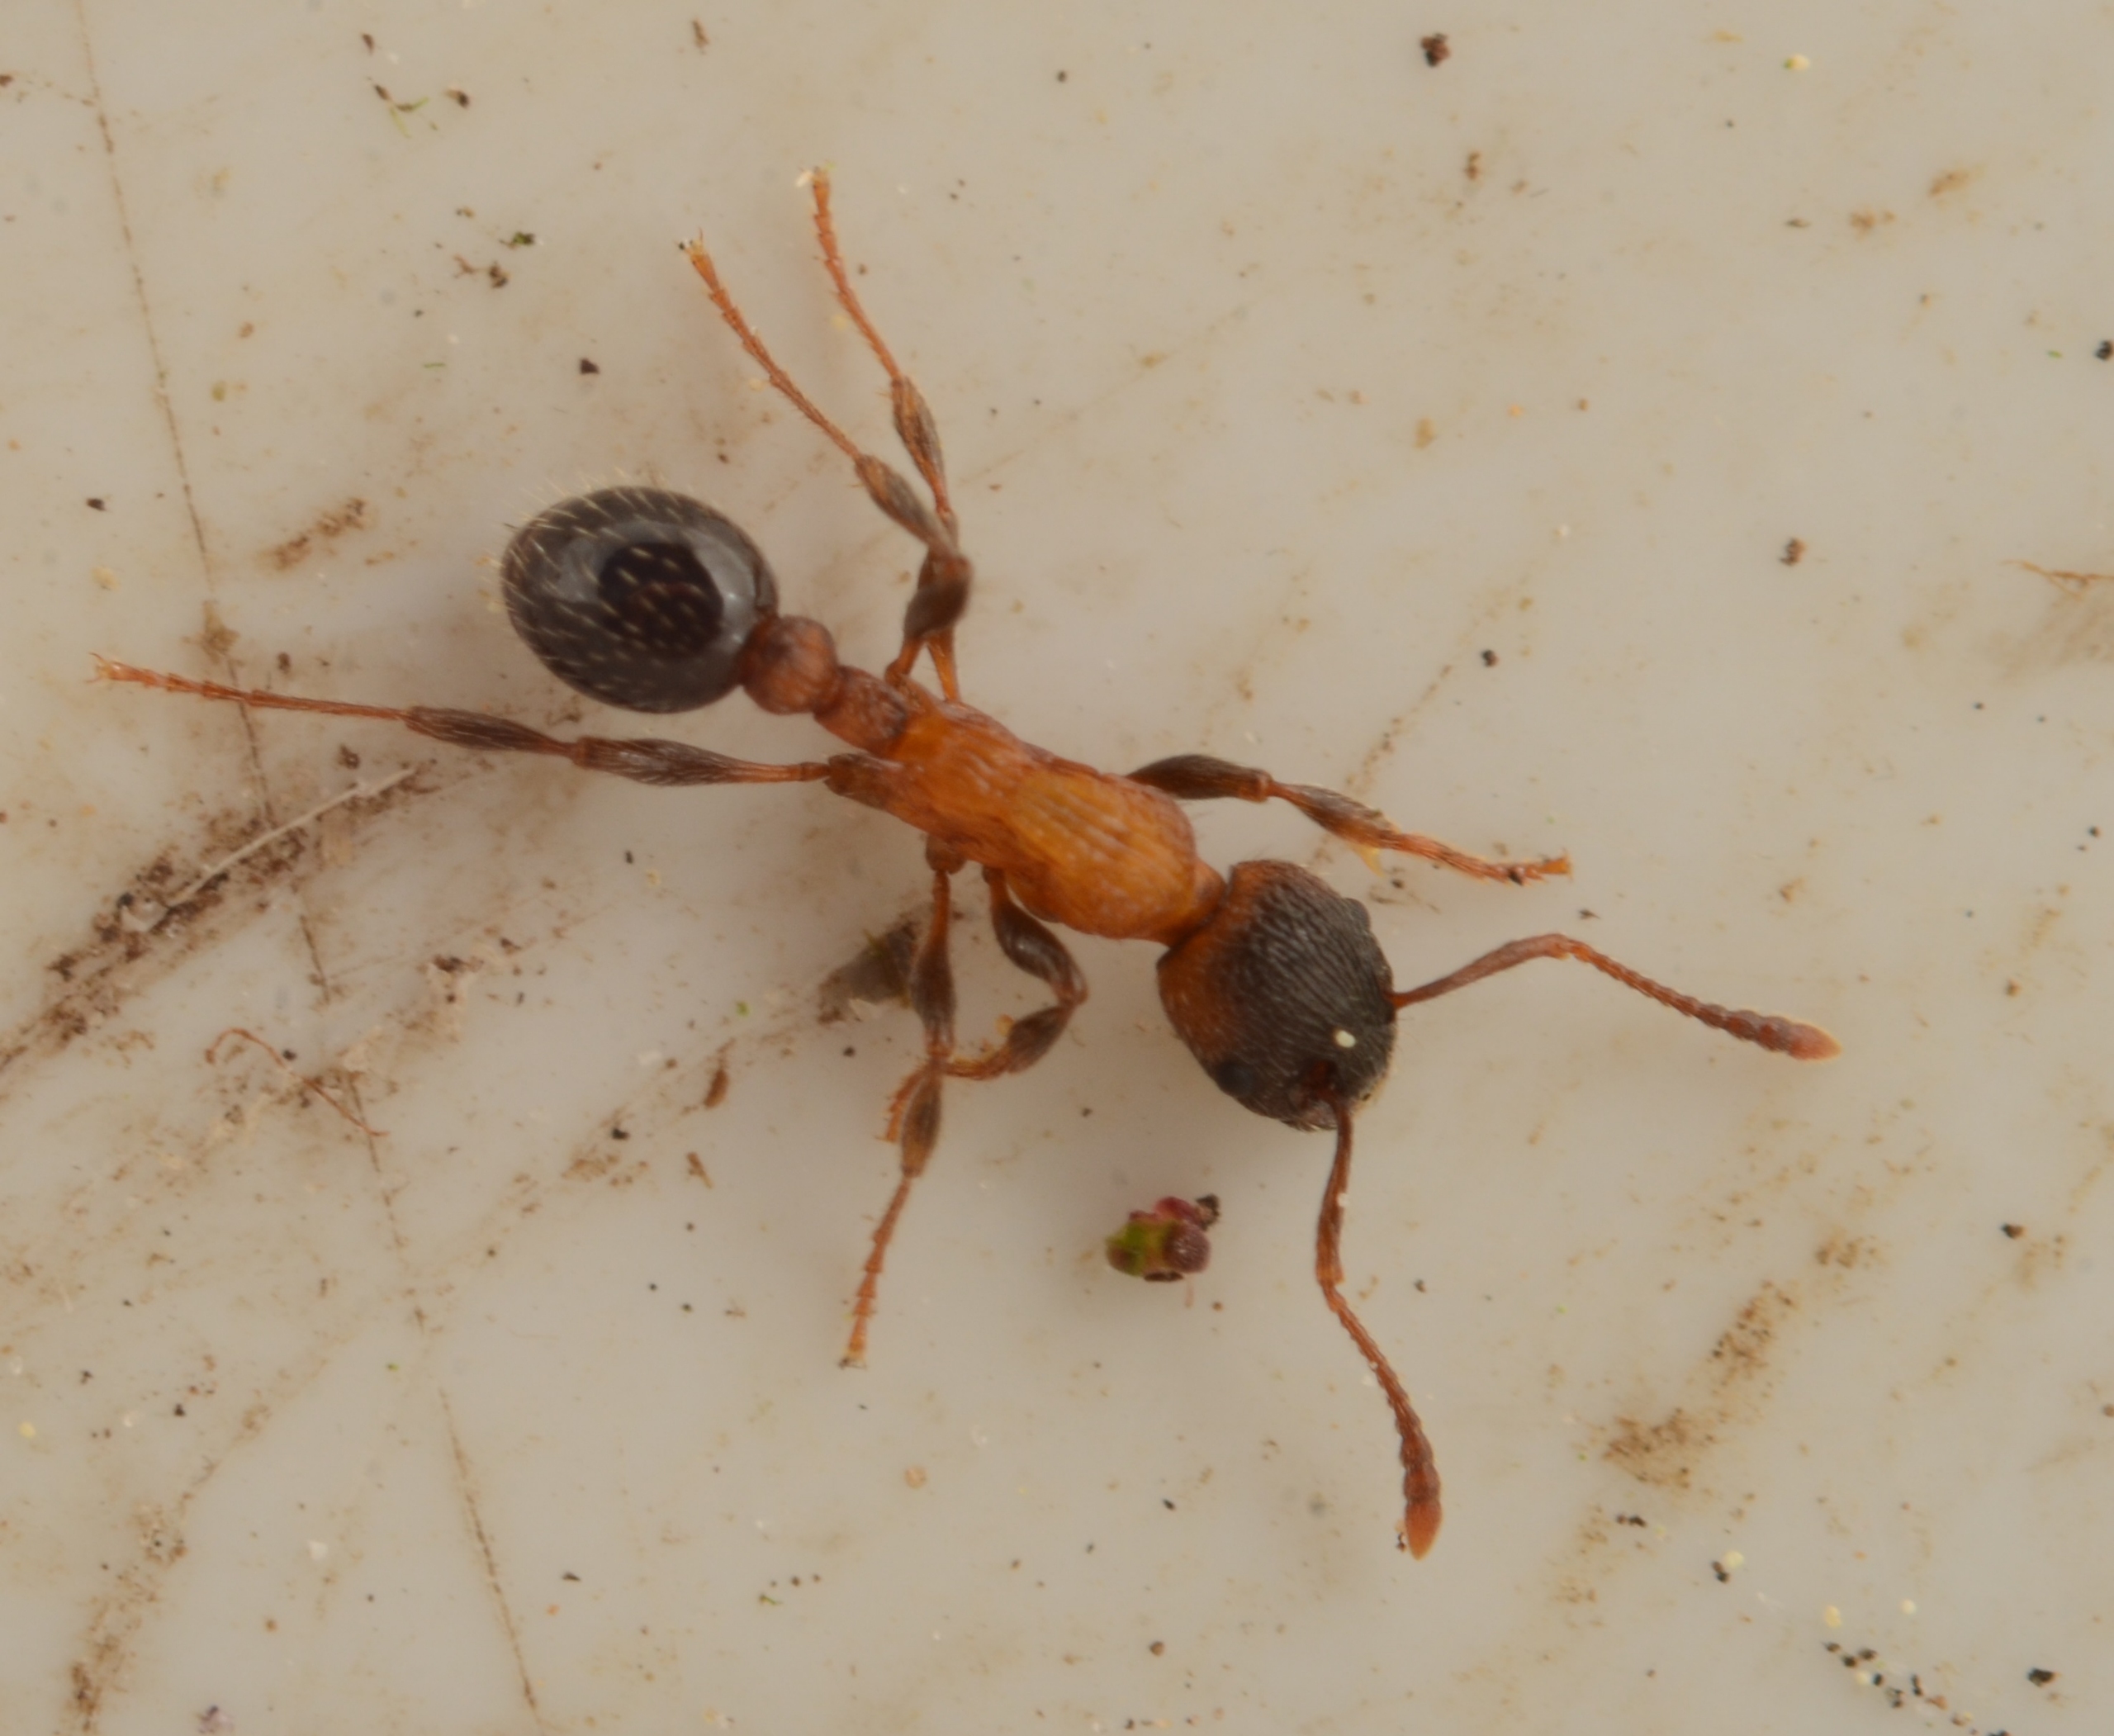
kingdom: Animalia
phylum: Arthropoda
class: Insecta
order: Hymenoptera
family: Formicidae
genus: Myrmica
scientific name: Myrmica sulcinodis
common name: Stor stikmyre
